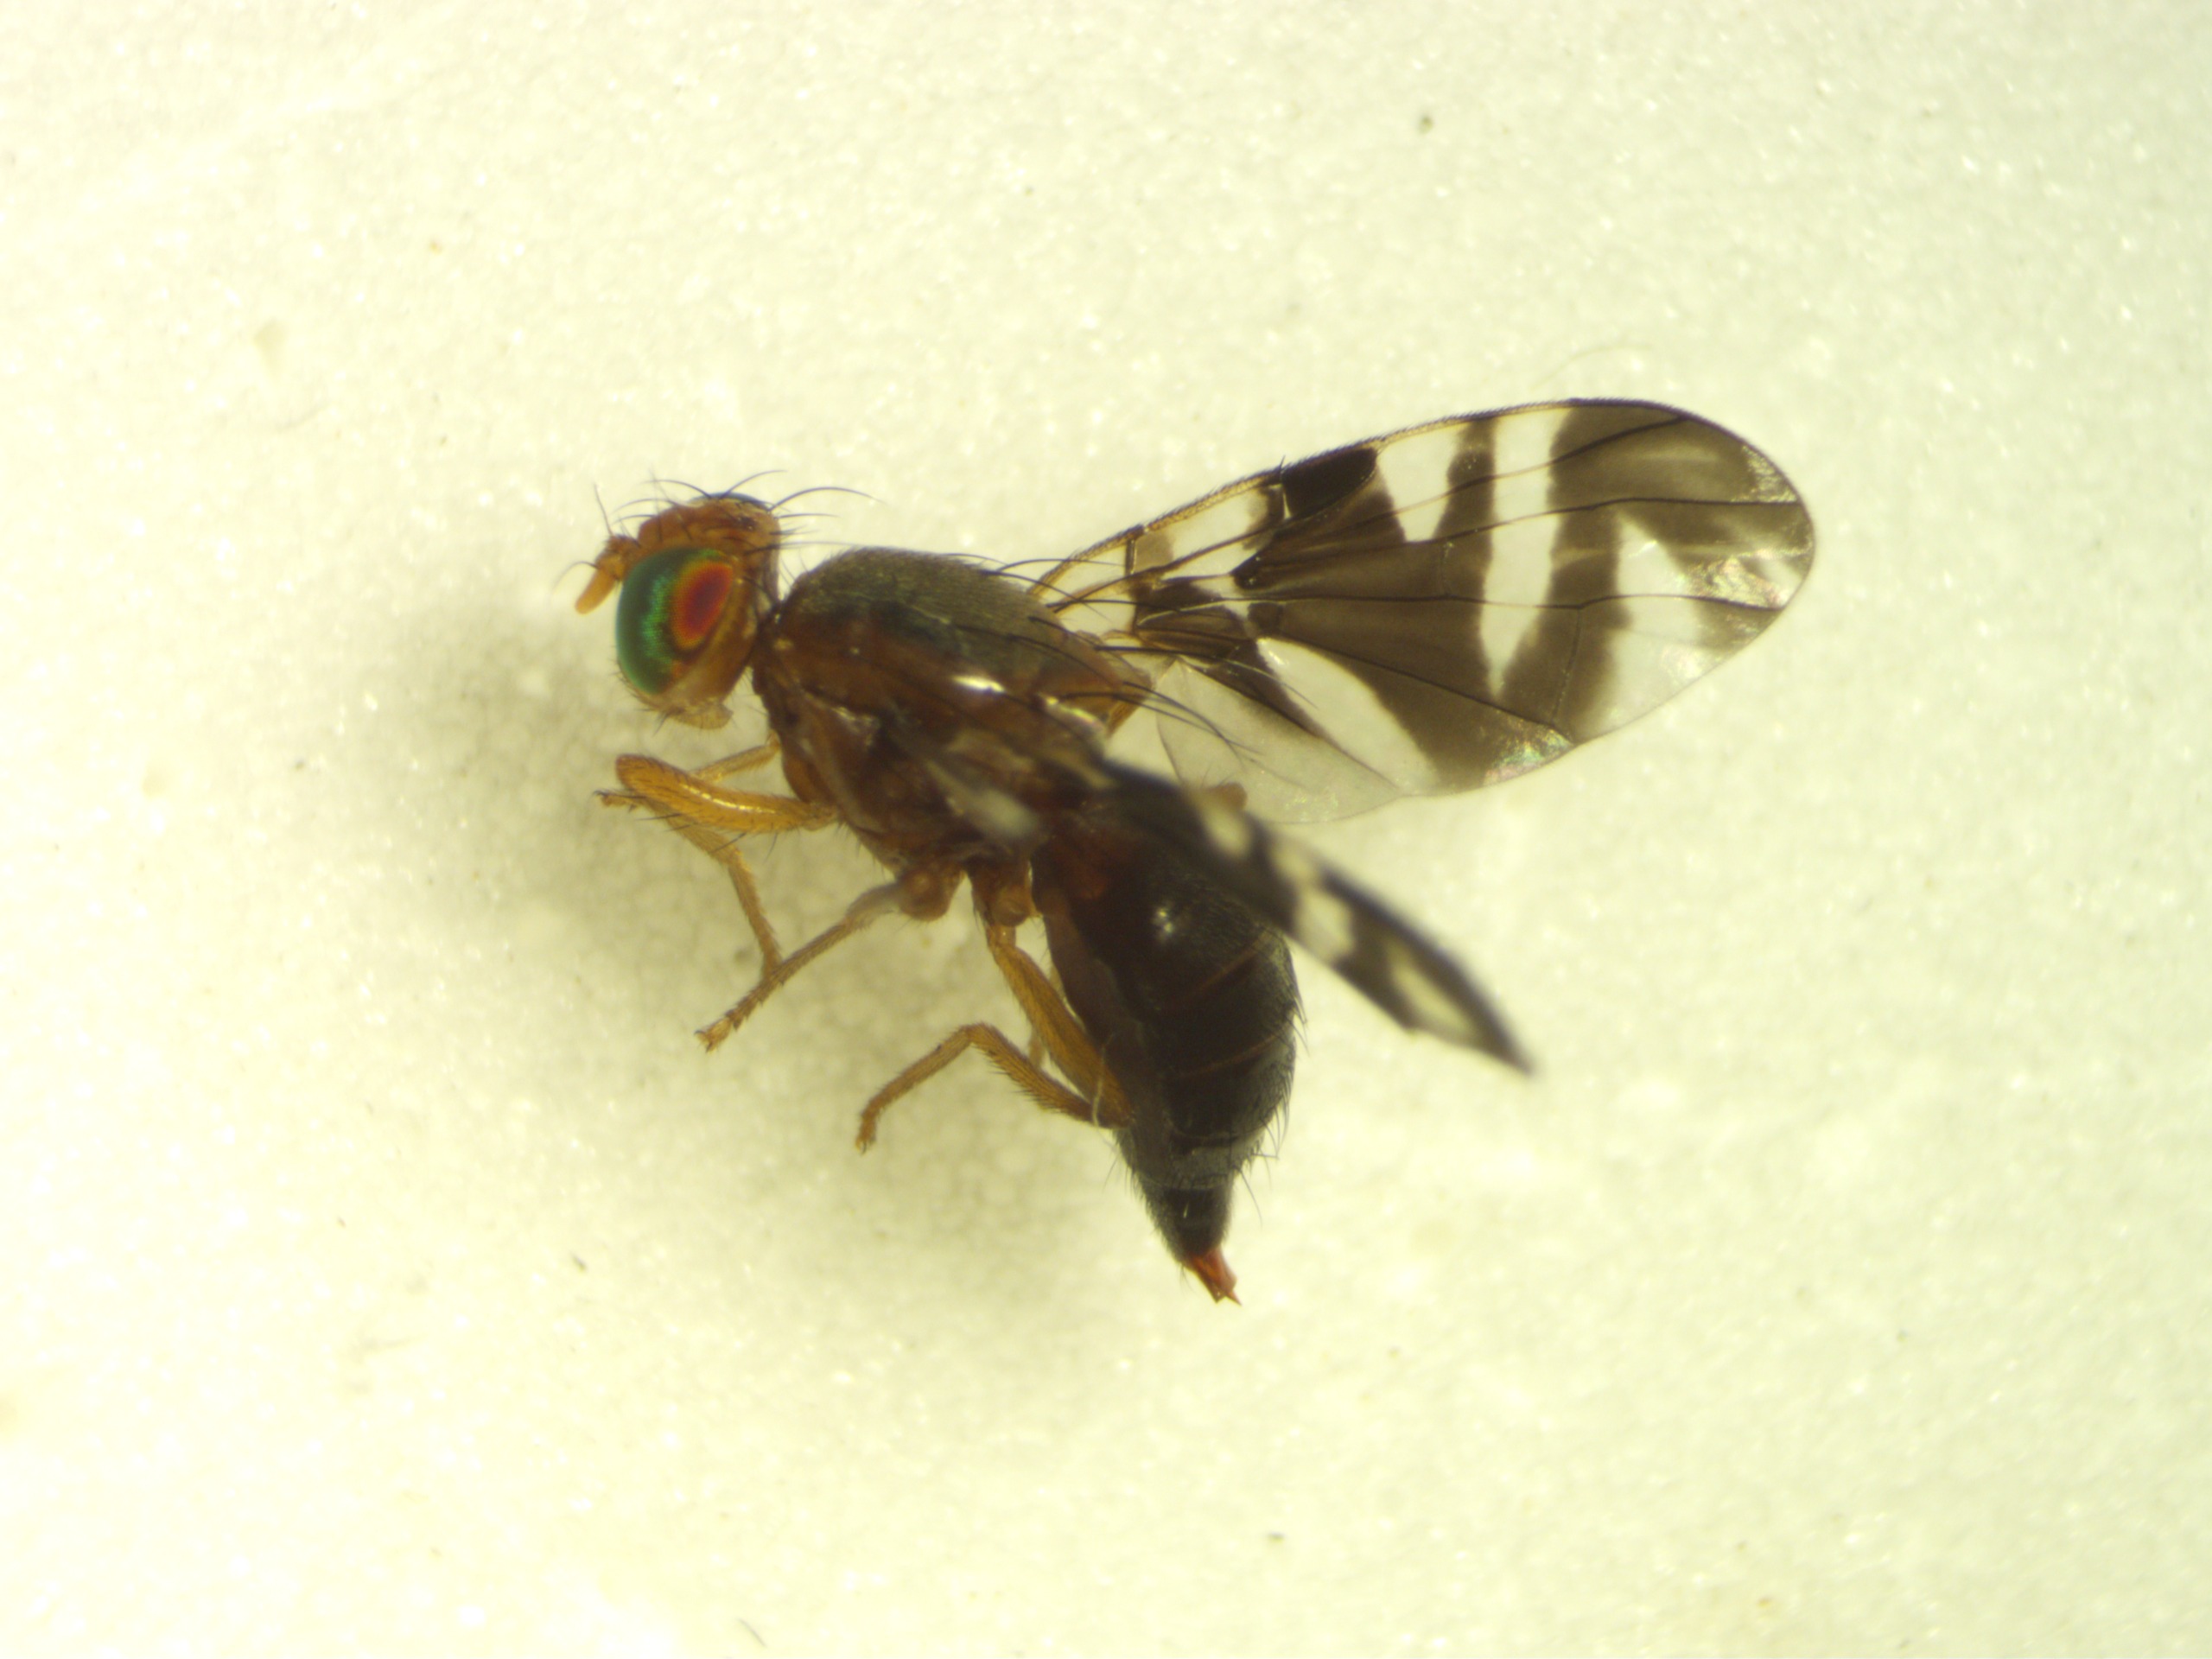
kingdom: Animalia
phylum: Arthropoda
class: Insecta
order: Diptera
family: Tephritidae
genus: Philophylla
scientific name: Philophylla caesio
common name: Nældebåndflue
